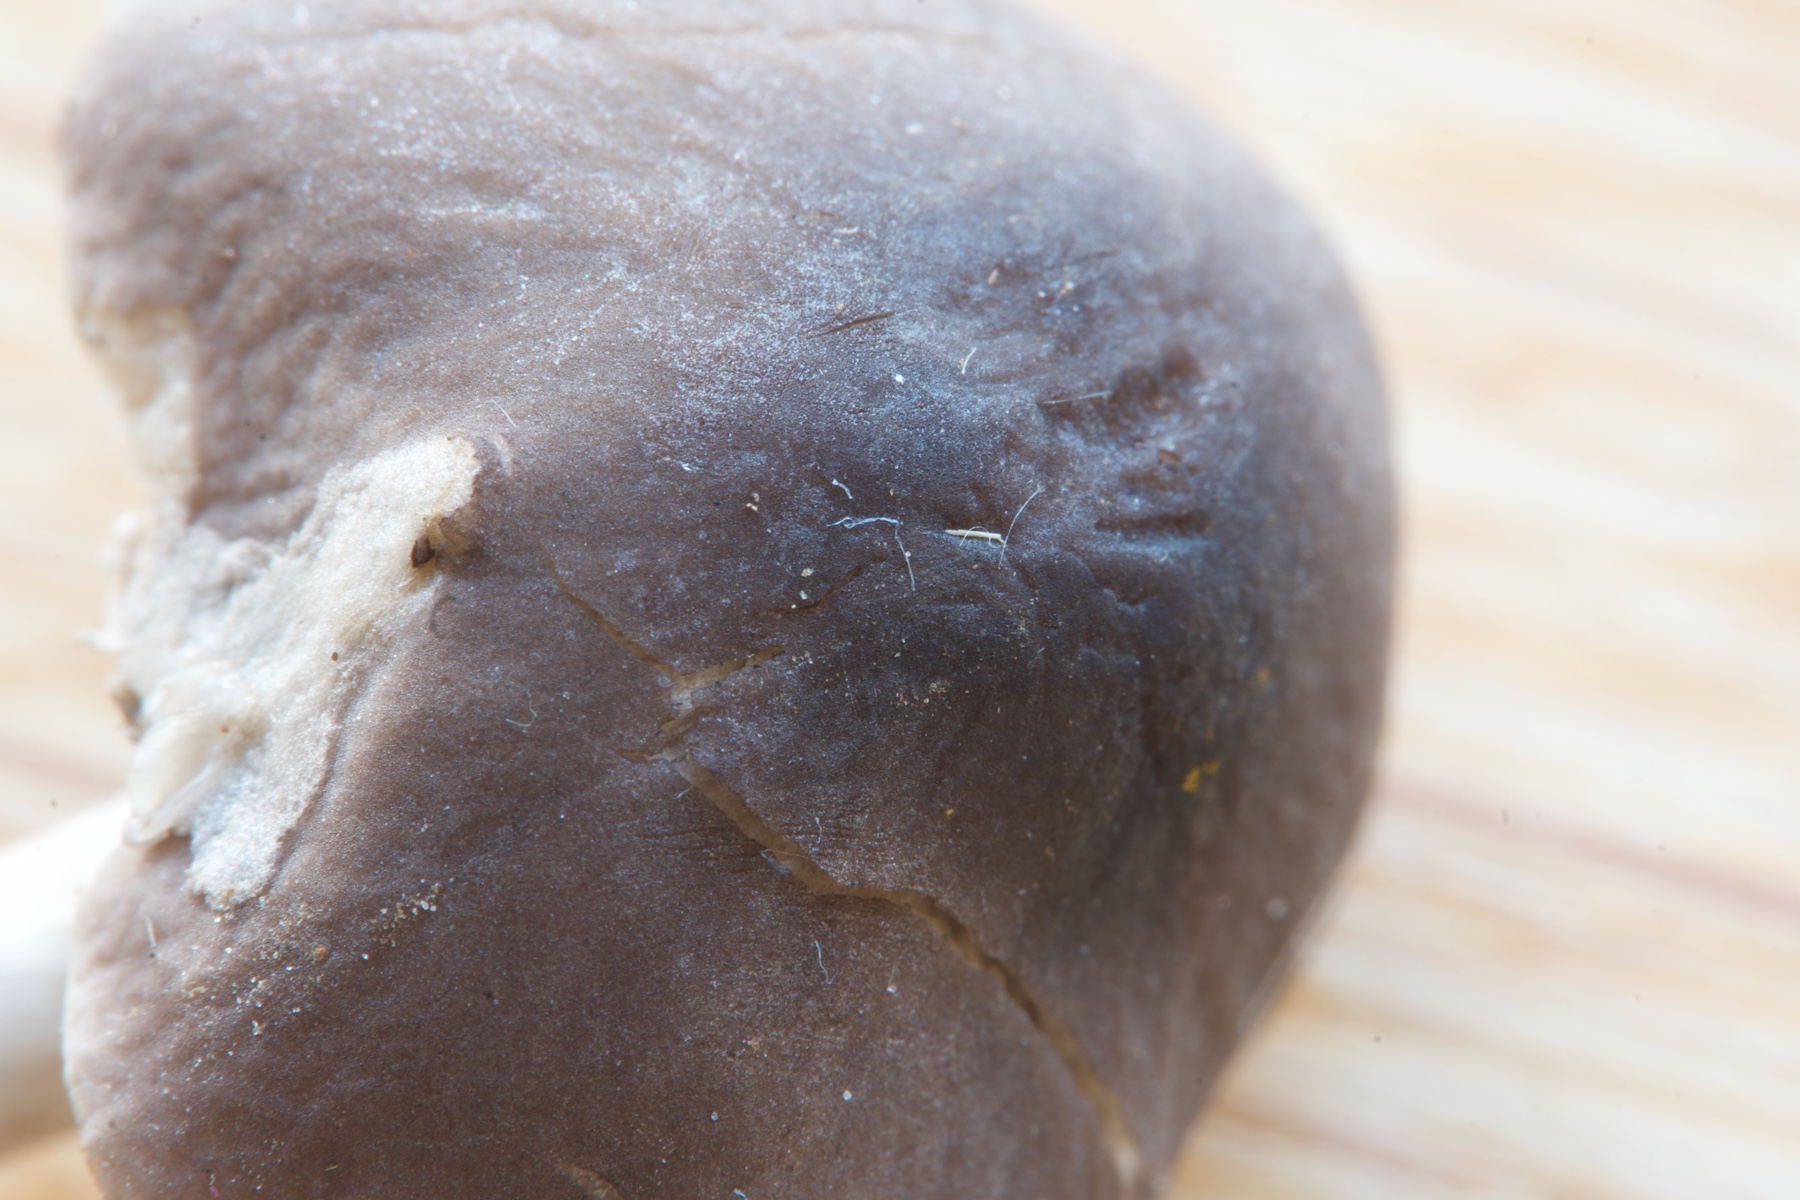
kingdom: Fungi
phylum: Basidiomycota
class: Agaricomycetes
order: Agaricales
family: Tricholomataceae
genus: Dermoloma
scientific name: Dermoloma cuneifolium
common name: eng-nonnehat
